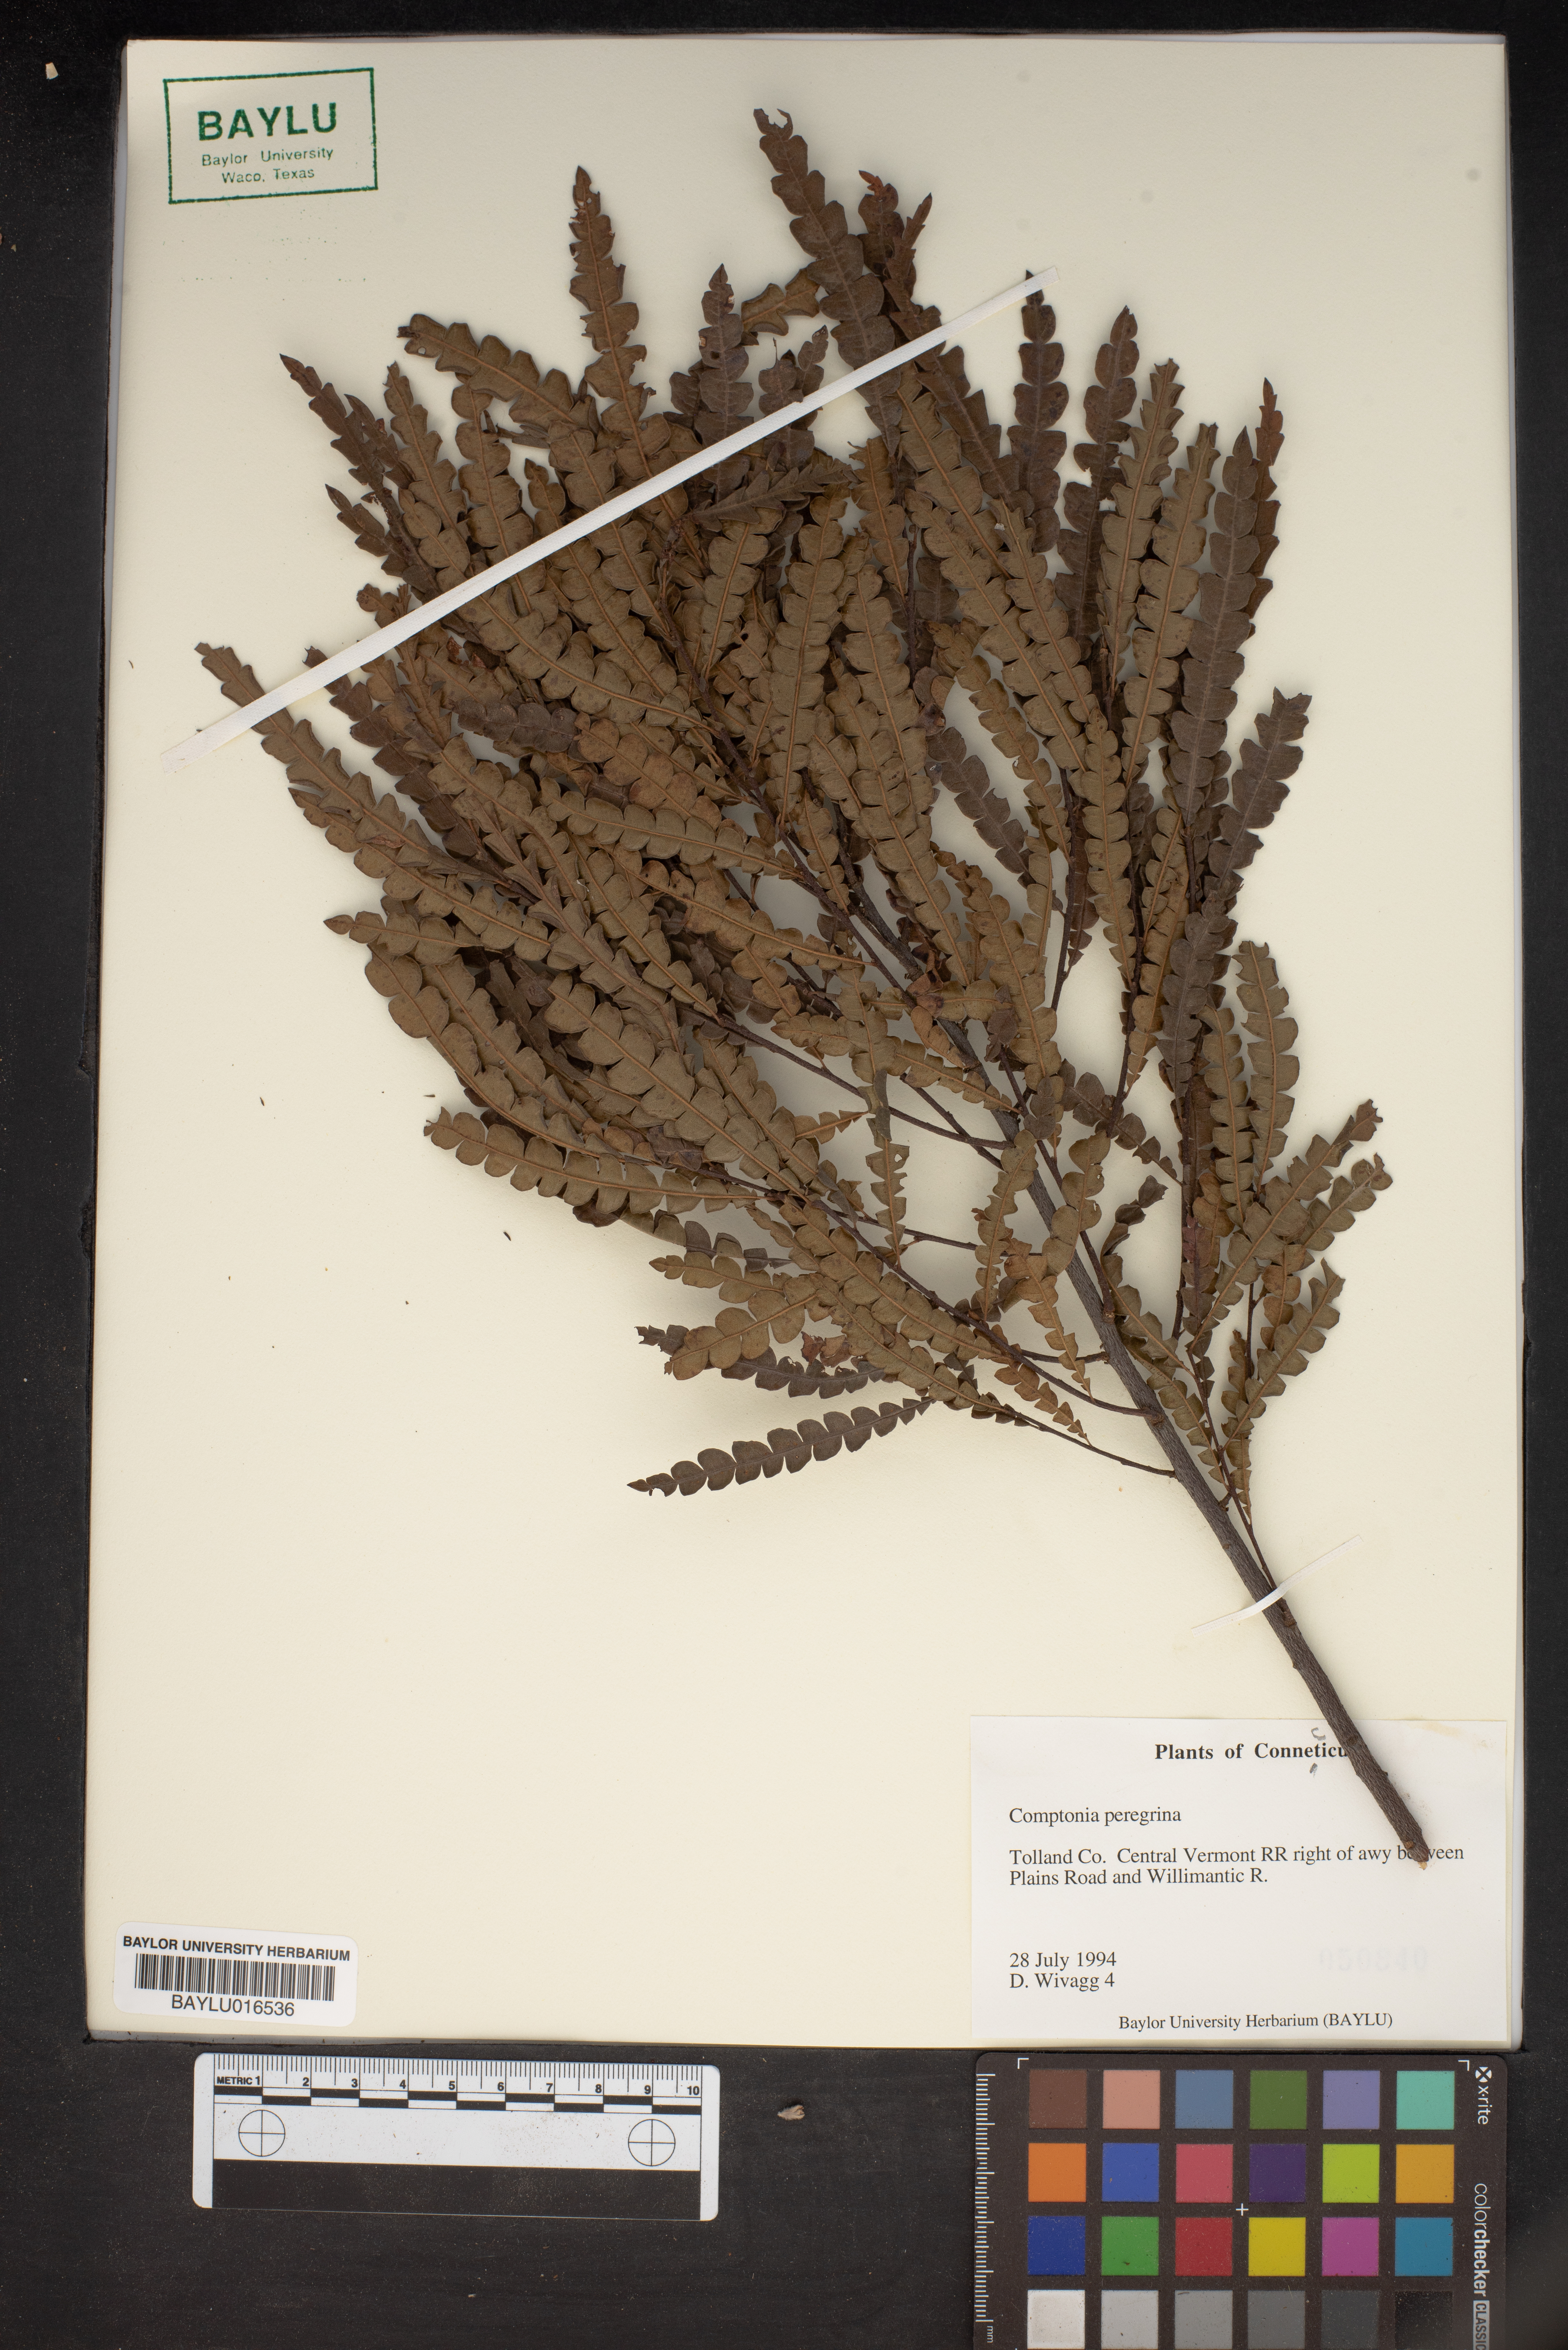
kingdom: Plantae
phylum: Tracheophyta
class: Magnoliopsida
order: Fagales
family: Myricaceae
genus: Comptonia
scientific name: Comptonia peregrina
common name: Sweet-fern
